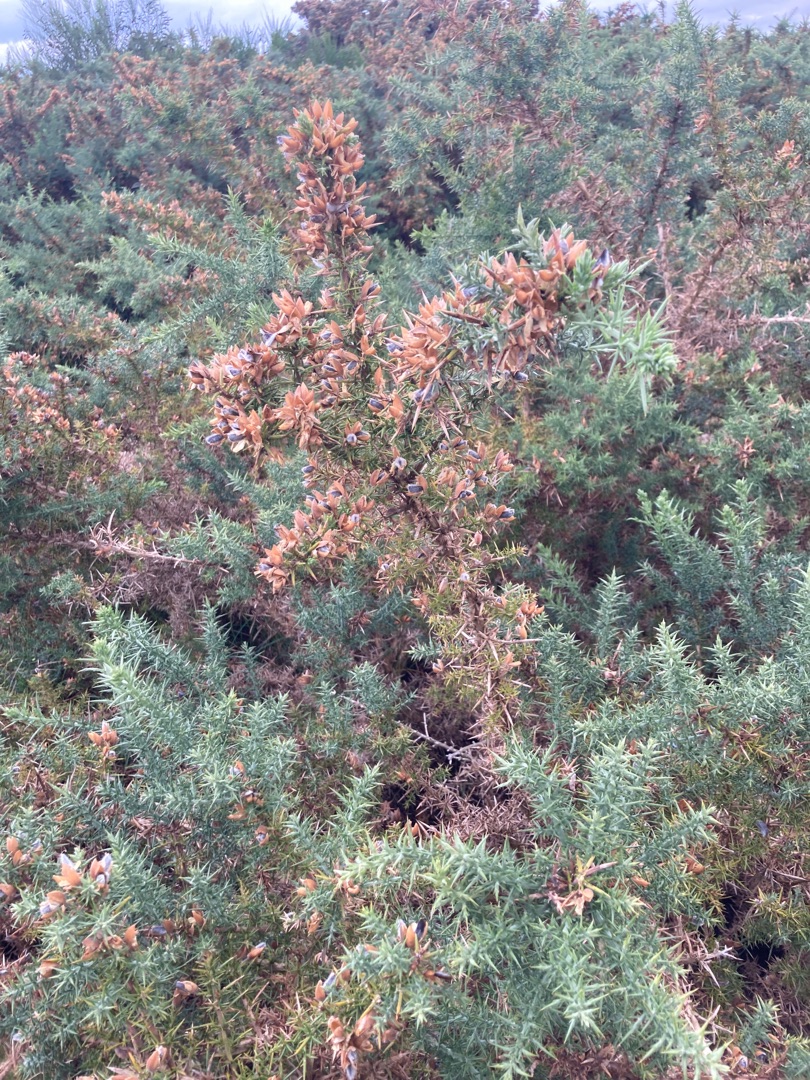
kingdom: Plantae
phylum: Tracheophyta
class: Magnoliopsida
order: Fabales
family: Fabaceae
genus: Ulex
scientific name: Ulex europaeus
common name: Tornblad
